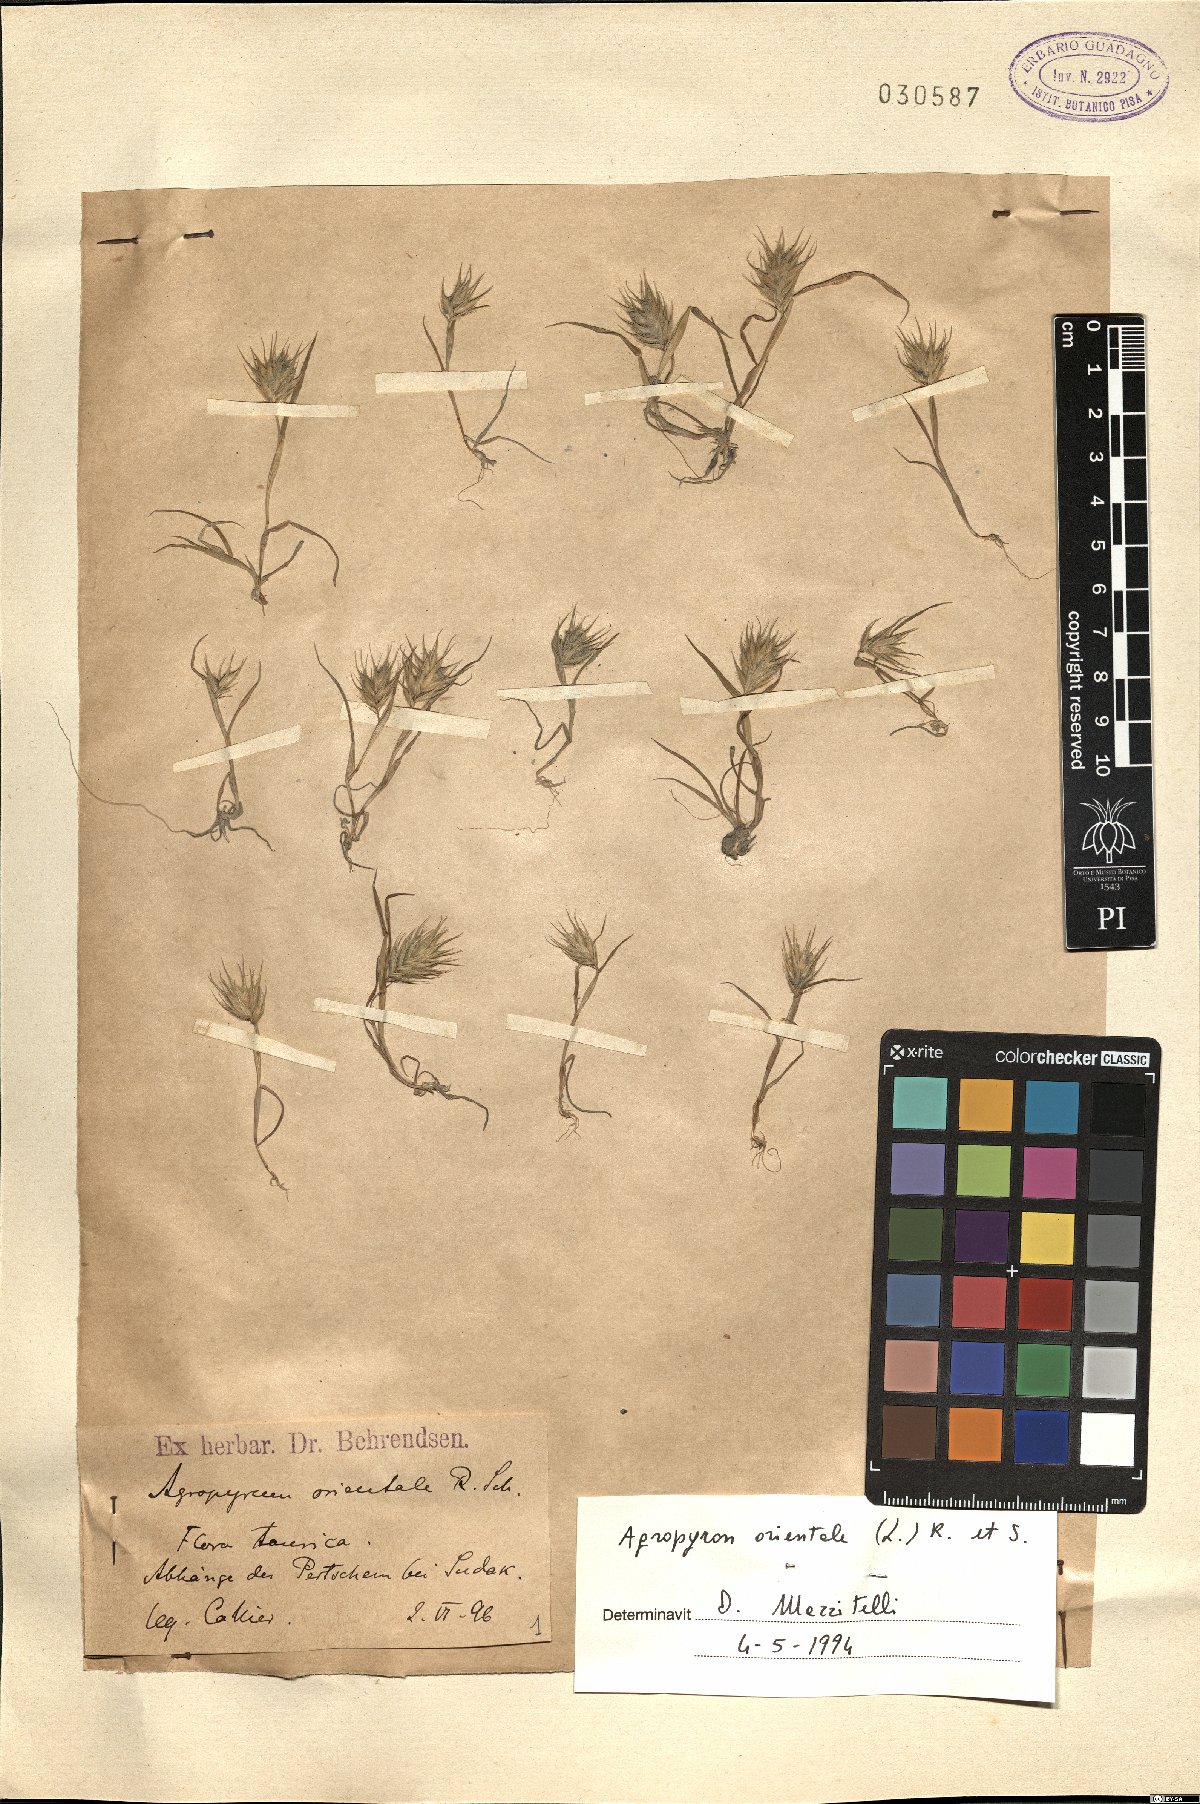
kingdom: Plantae
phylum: Tracheophyta
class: Liliopsida
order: Poales
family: Poaceae
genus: Eremopyrum
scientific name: Eremopyrum orientale
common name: Oriental false wheatgrass
